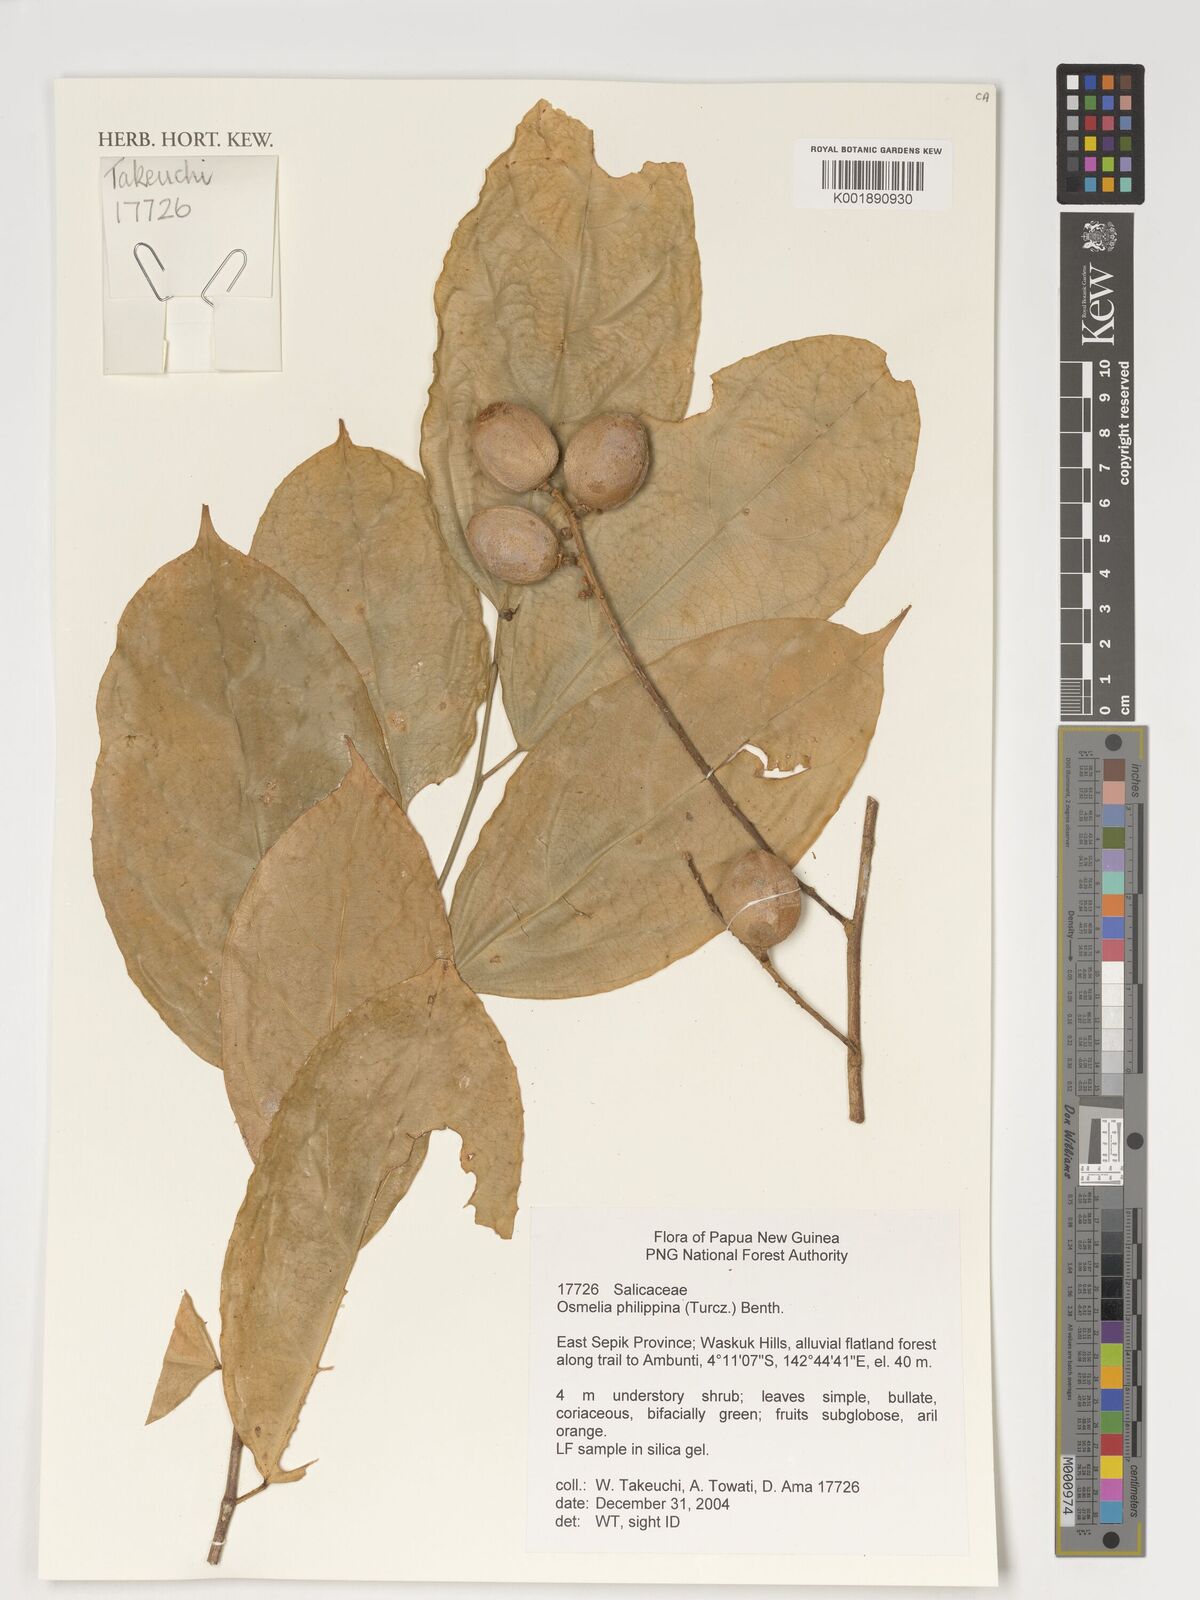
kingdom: Plantae
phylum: Tracheophyta
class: Magnoliopsida
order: Malpighiales
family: Salicaceae
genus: Osmelia
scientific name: Osmelia philippina
